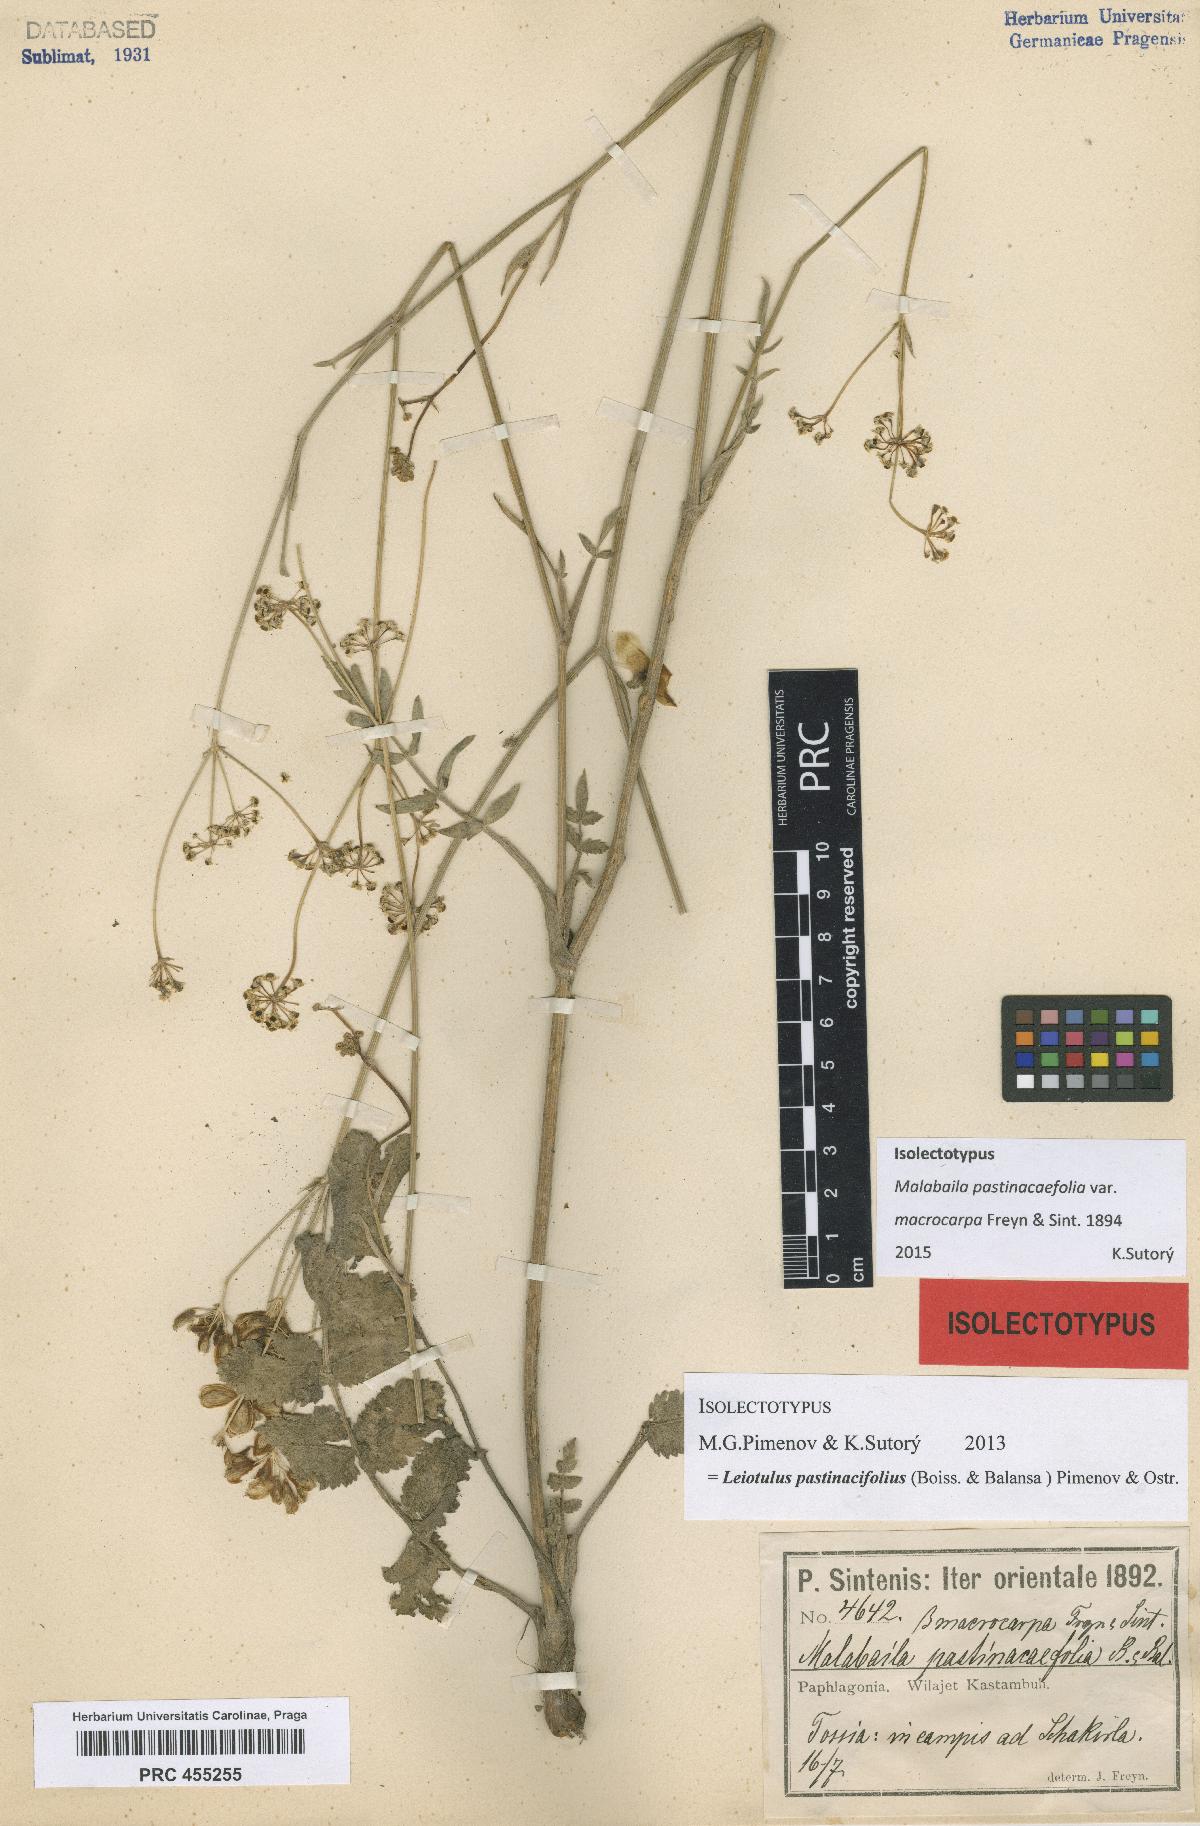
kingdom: Plantae
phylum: Tracheophyta
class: Magnoliopsida
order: Apiales
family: Apiaceae
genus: Leiotulus
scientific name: Leiotulus pastinacifolius
